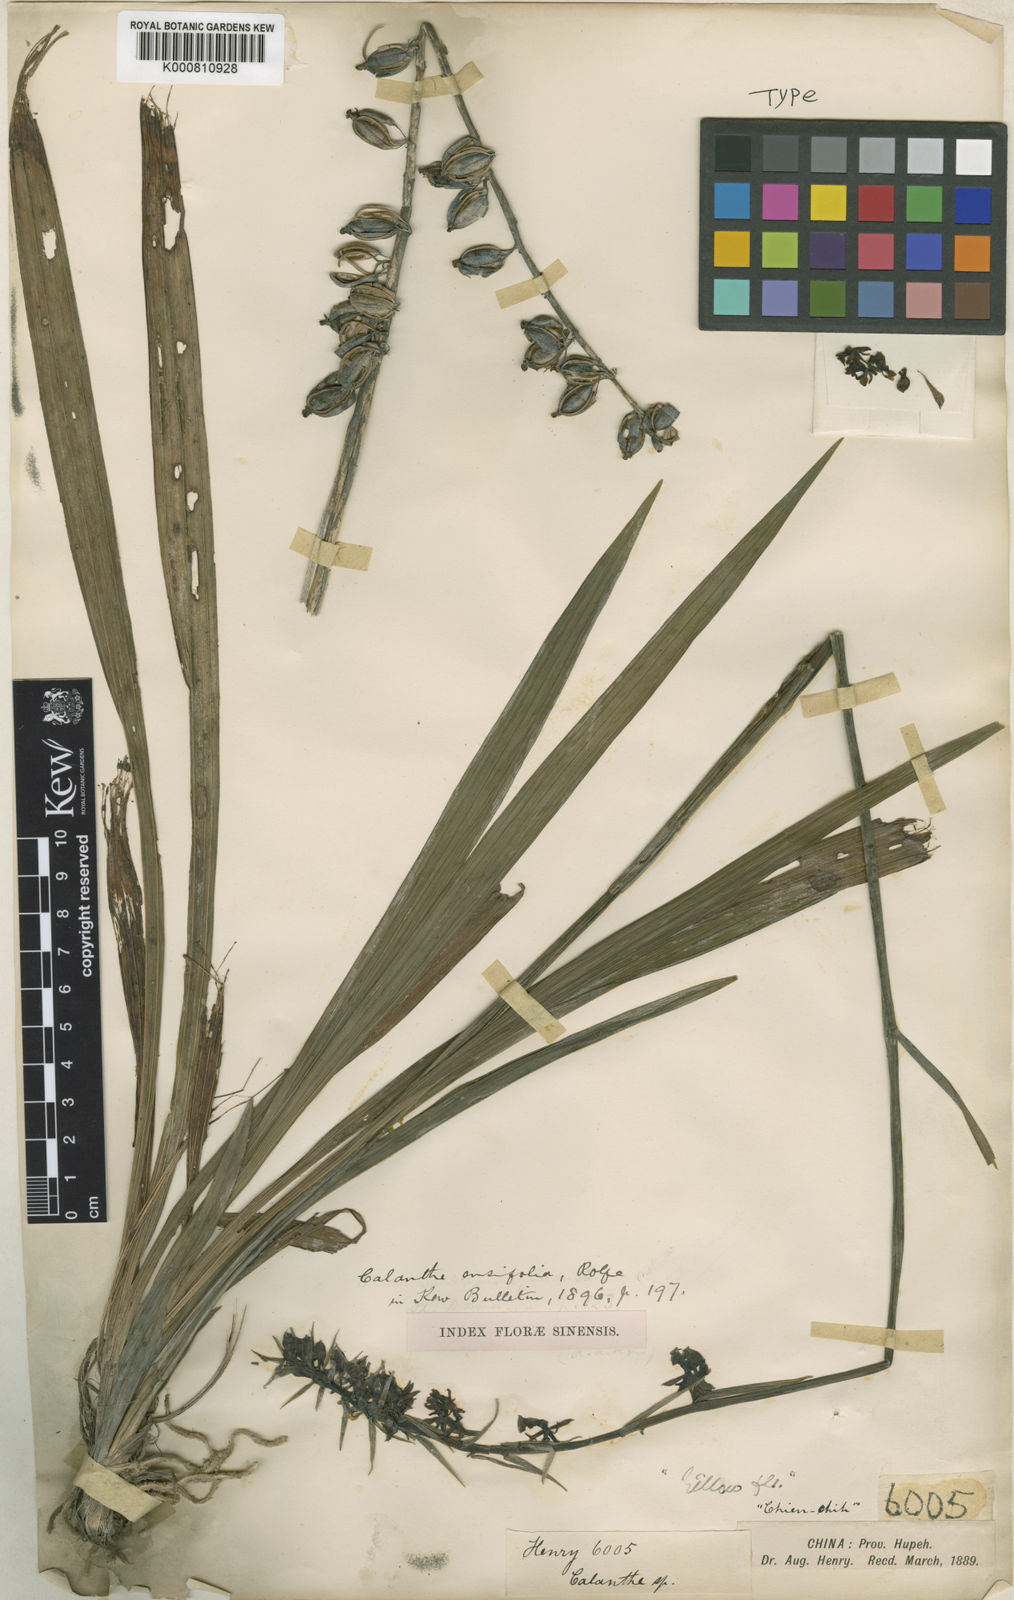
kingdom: Plantae
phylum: Tracheophyta
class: Liliopsida
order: Asparagales
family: Orchidaceae
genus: Calanthe
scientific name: Calanthe davidii
